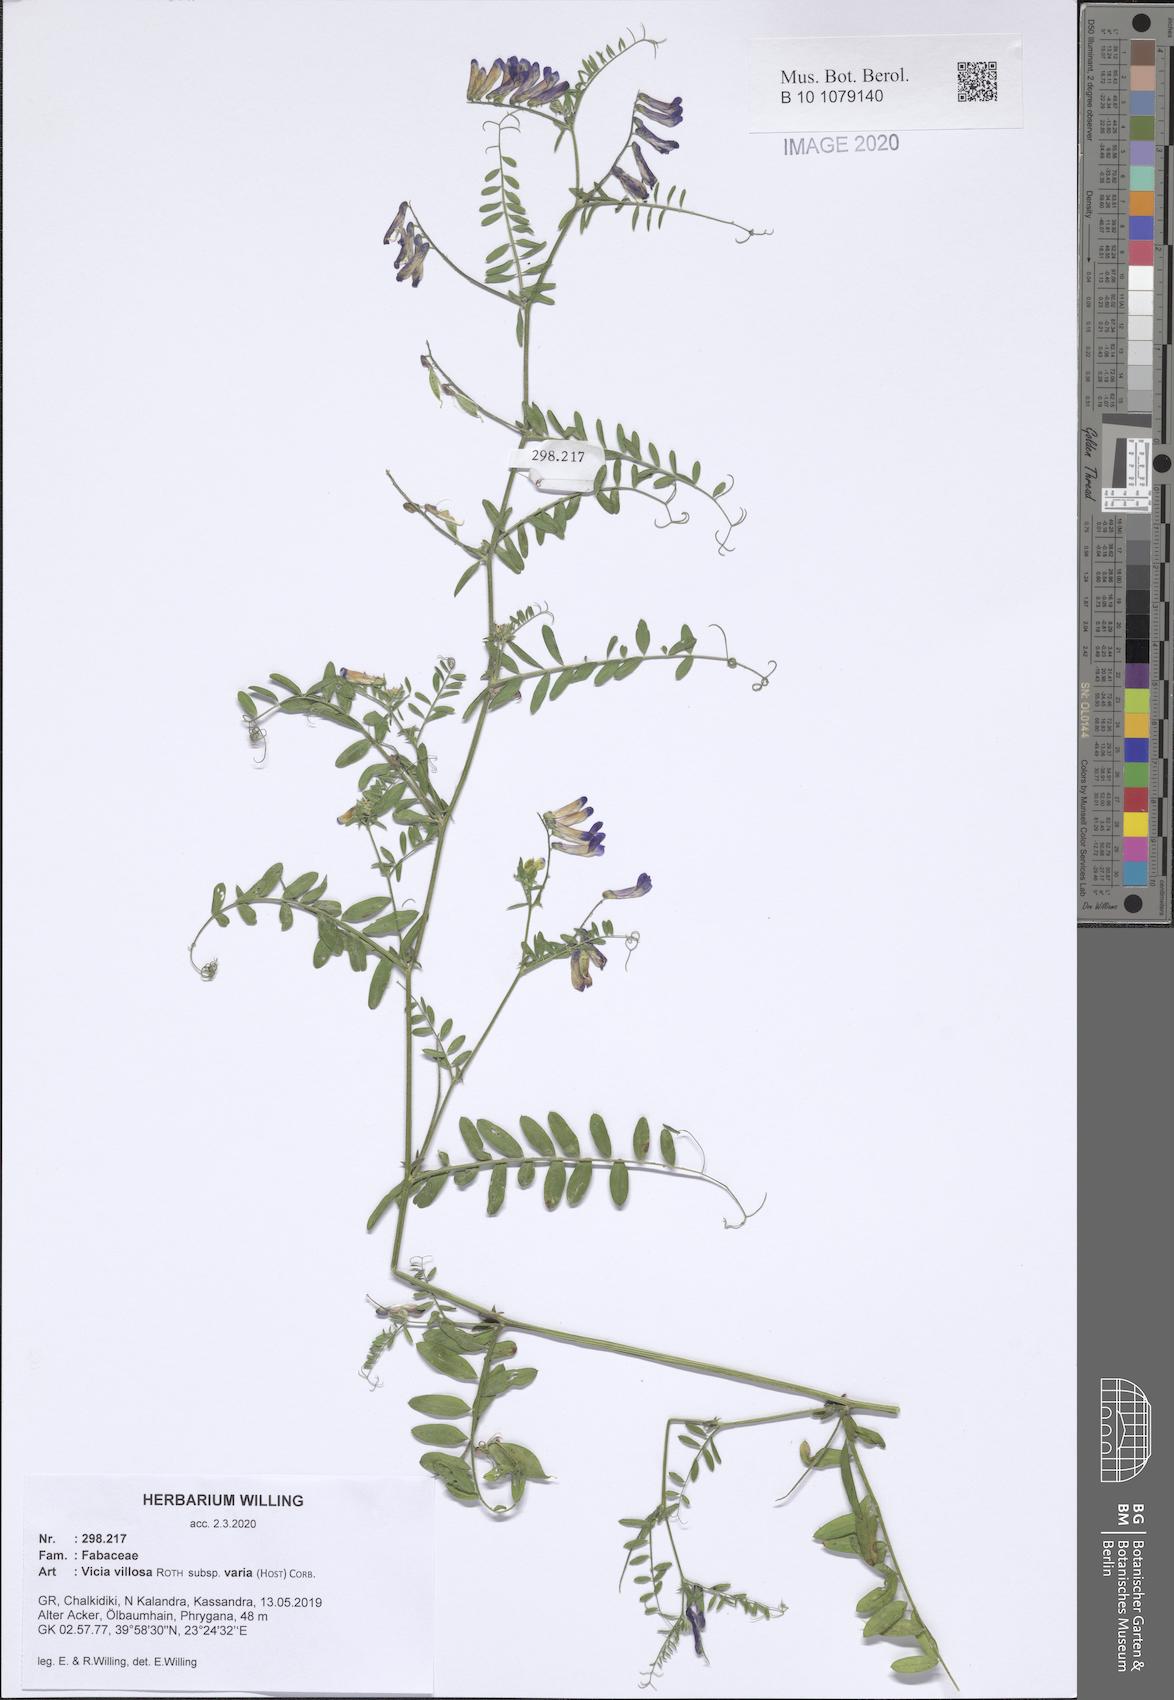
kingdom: Plantae
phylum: Tracheophyta
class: Magnoliopsida
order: Fabales
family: Fabaceae
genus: Vicia
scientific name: Vicia villosa
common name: Fodder vetch
